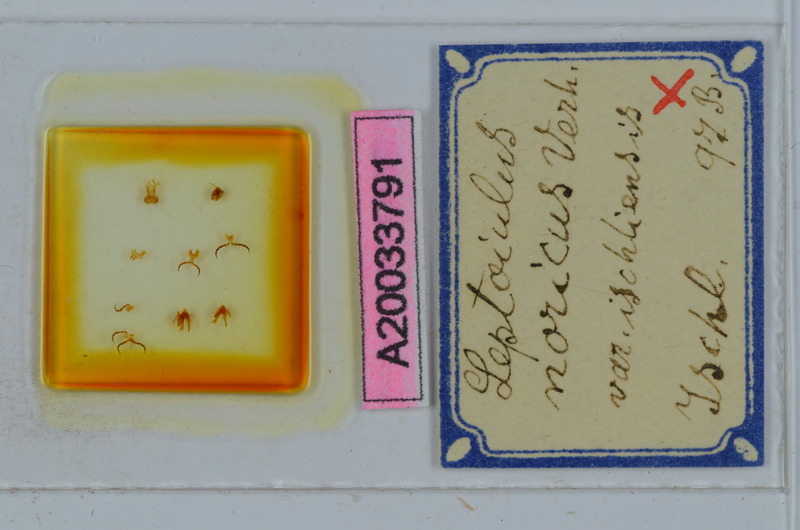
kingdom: Animalia
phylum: Arthropoda
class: Diplopoda
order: Julida
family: Julidae
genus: Leptoiulus
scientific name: Leptoiulus noricus
